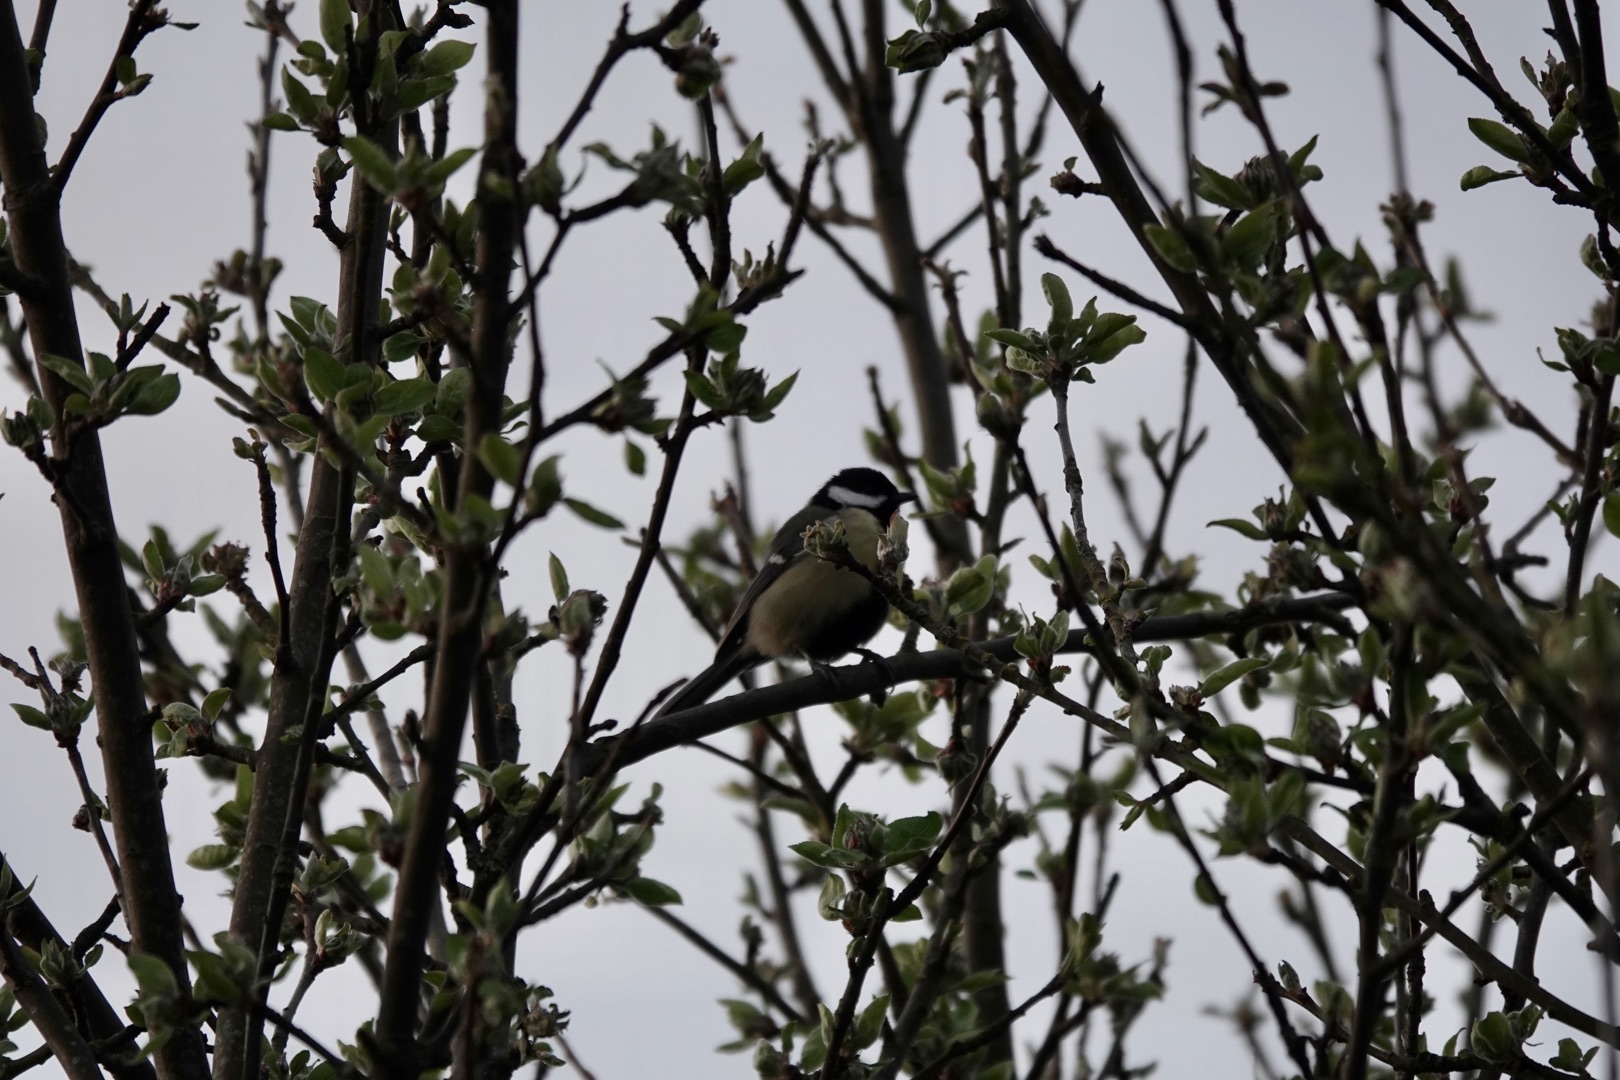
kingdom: Animalia
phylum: Chordata
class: Aves
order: Passeriformes
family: Paridae
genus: Parus
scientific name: Parus major
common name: Musvit
